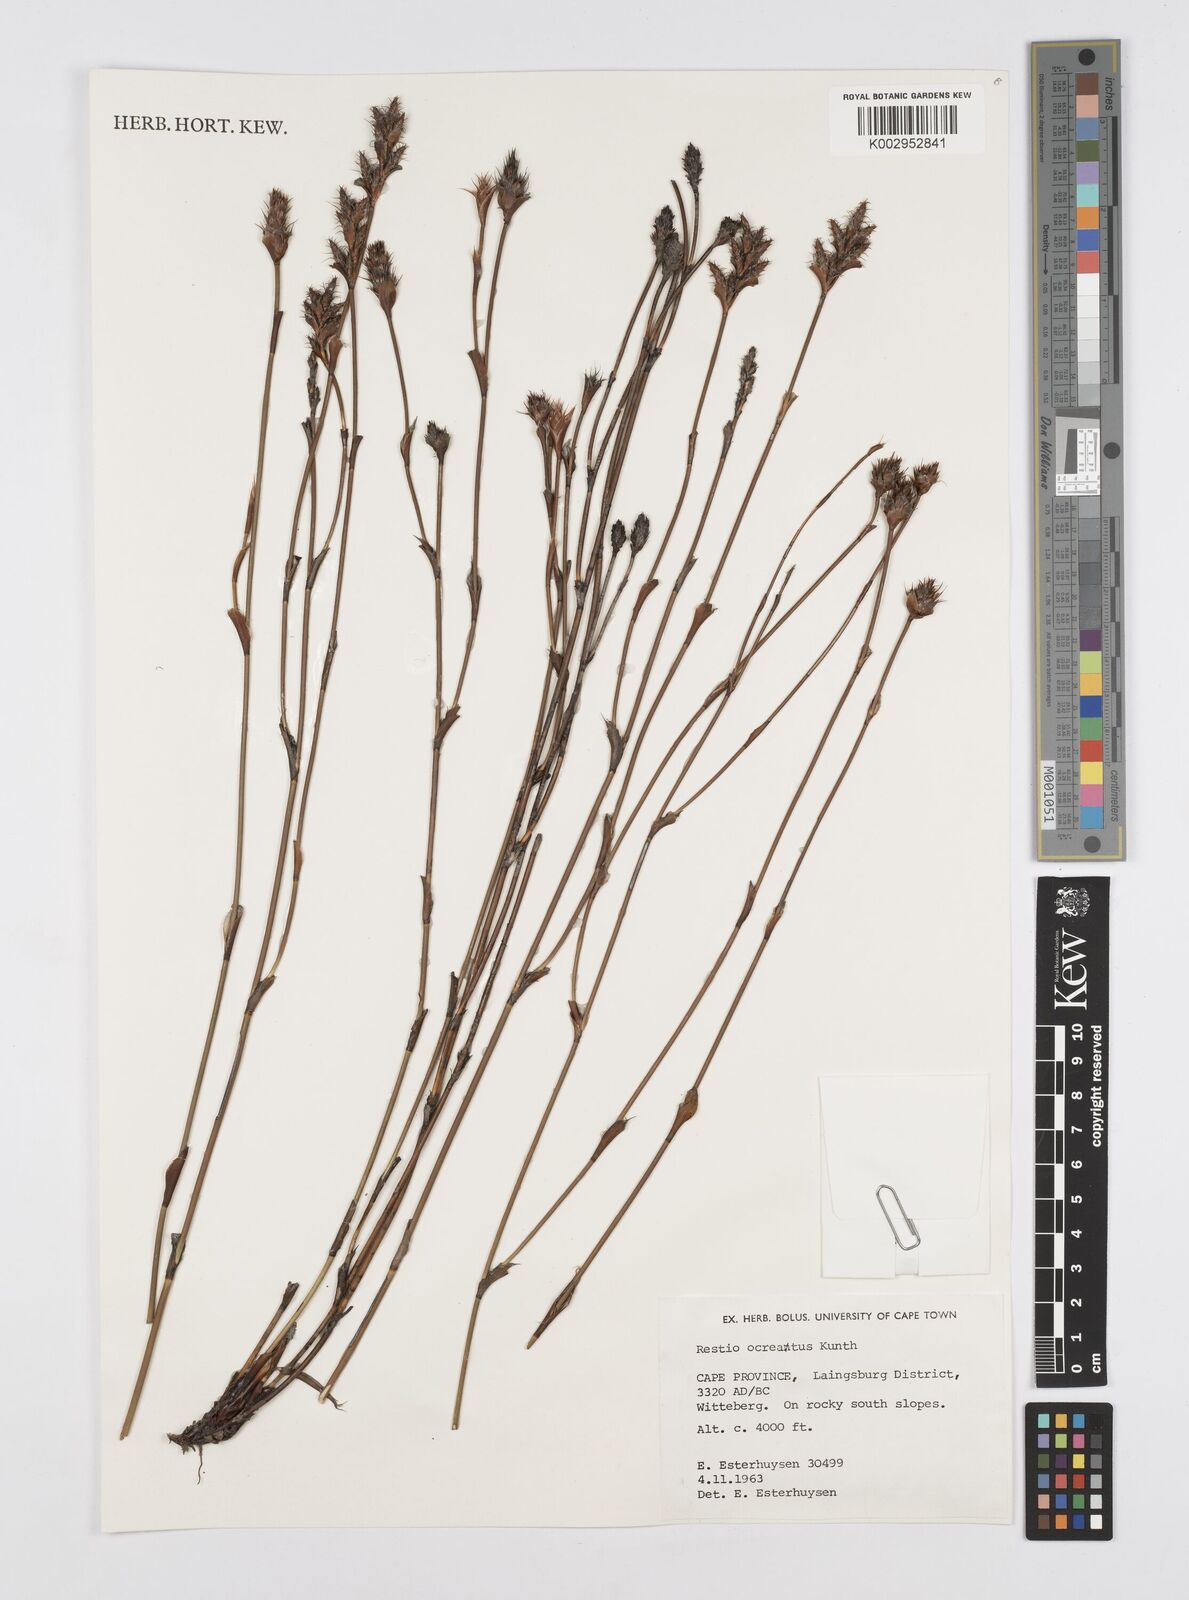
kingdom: Plantae
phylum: Tracheophyta
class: Liliopsida
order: Poales
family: Restionaceae
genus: Restio
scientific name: Restio ocreatus
